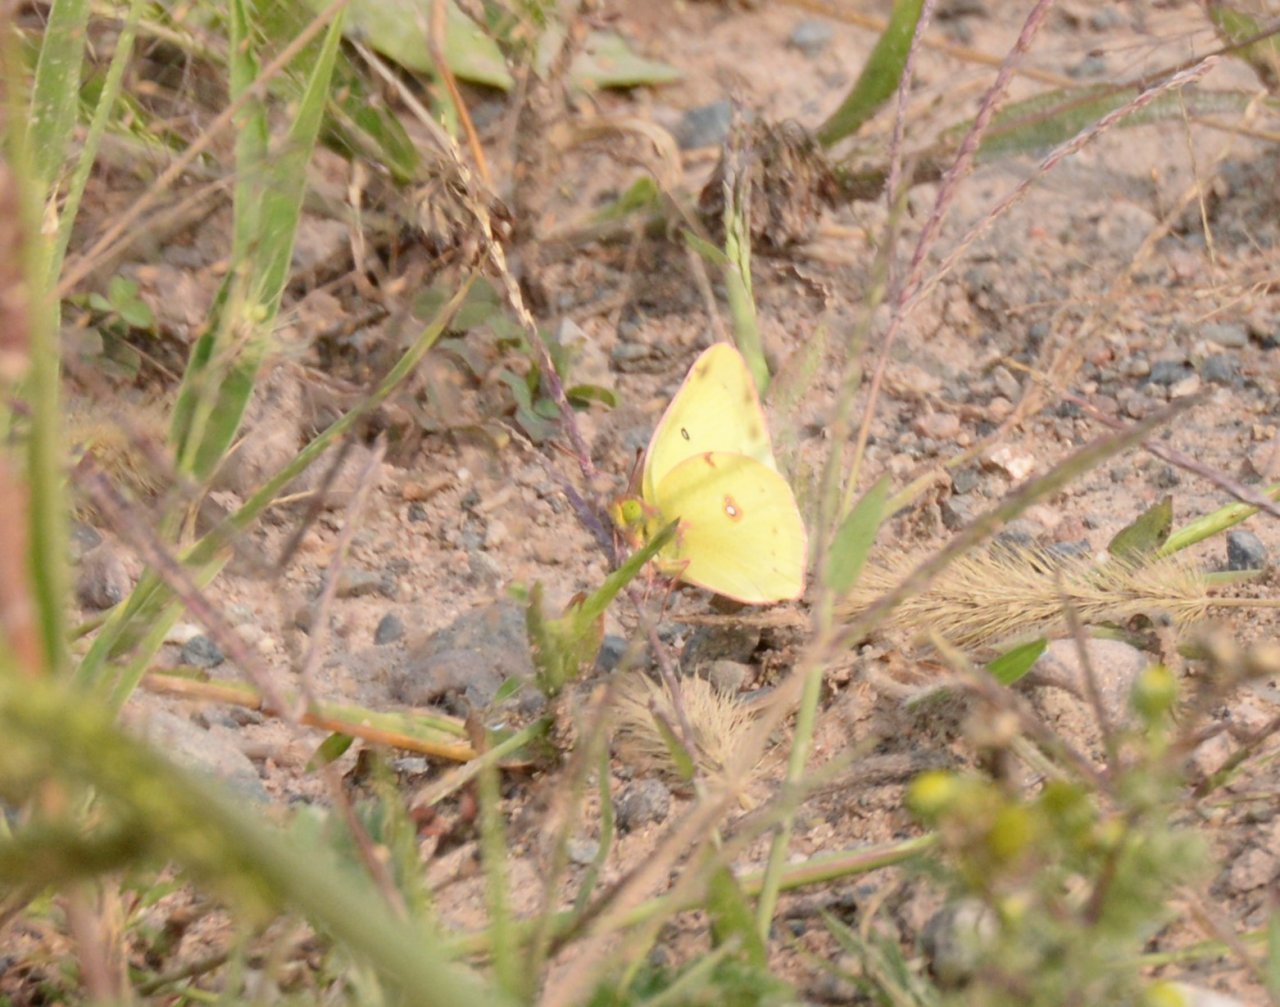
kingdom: Animalia
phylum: Arthropoda
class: Insecta
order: Lepidoptera
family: Pieridae
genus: Colias
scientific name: Colias philodice
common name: Clouded Sulphur
